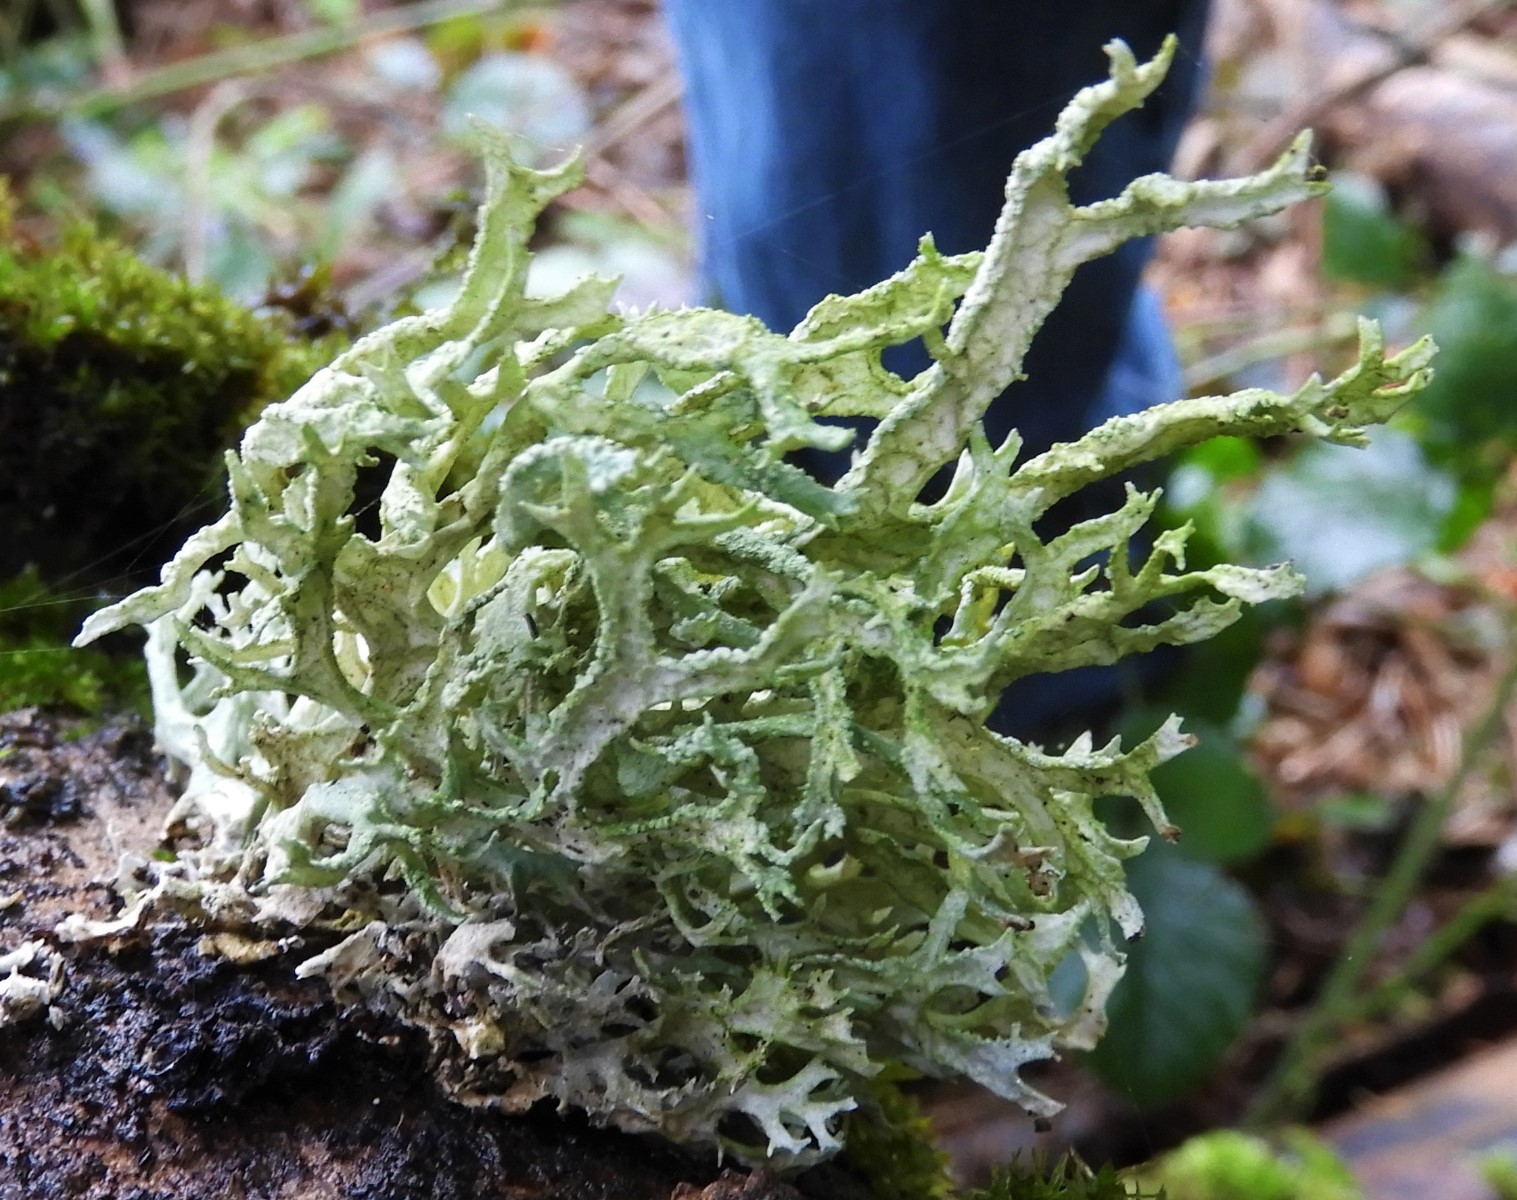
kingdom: Fungi
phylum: Ascomycota
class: Lecanoromycetes
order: Lecanorales
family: Parmeliaceae
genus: Evernia
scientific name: Evernia prunastri
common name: almindelig slåenlav
